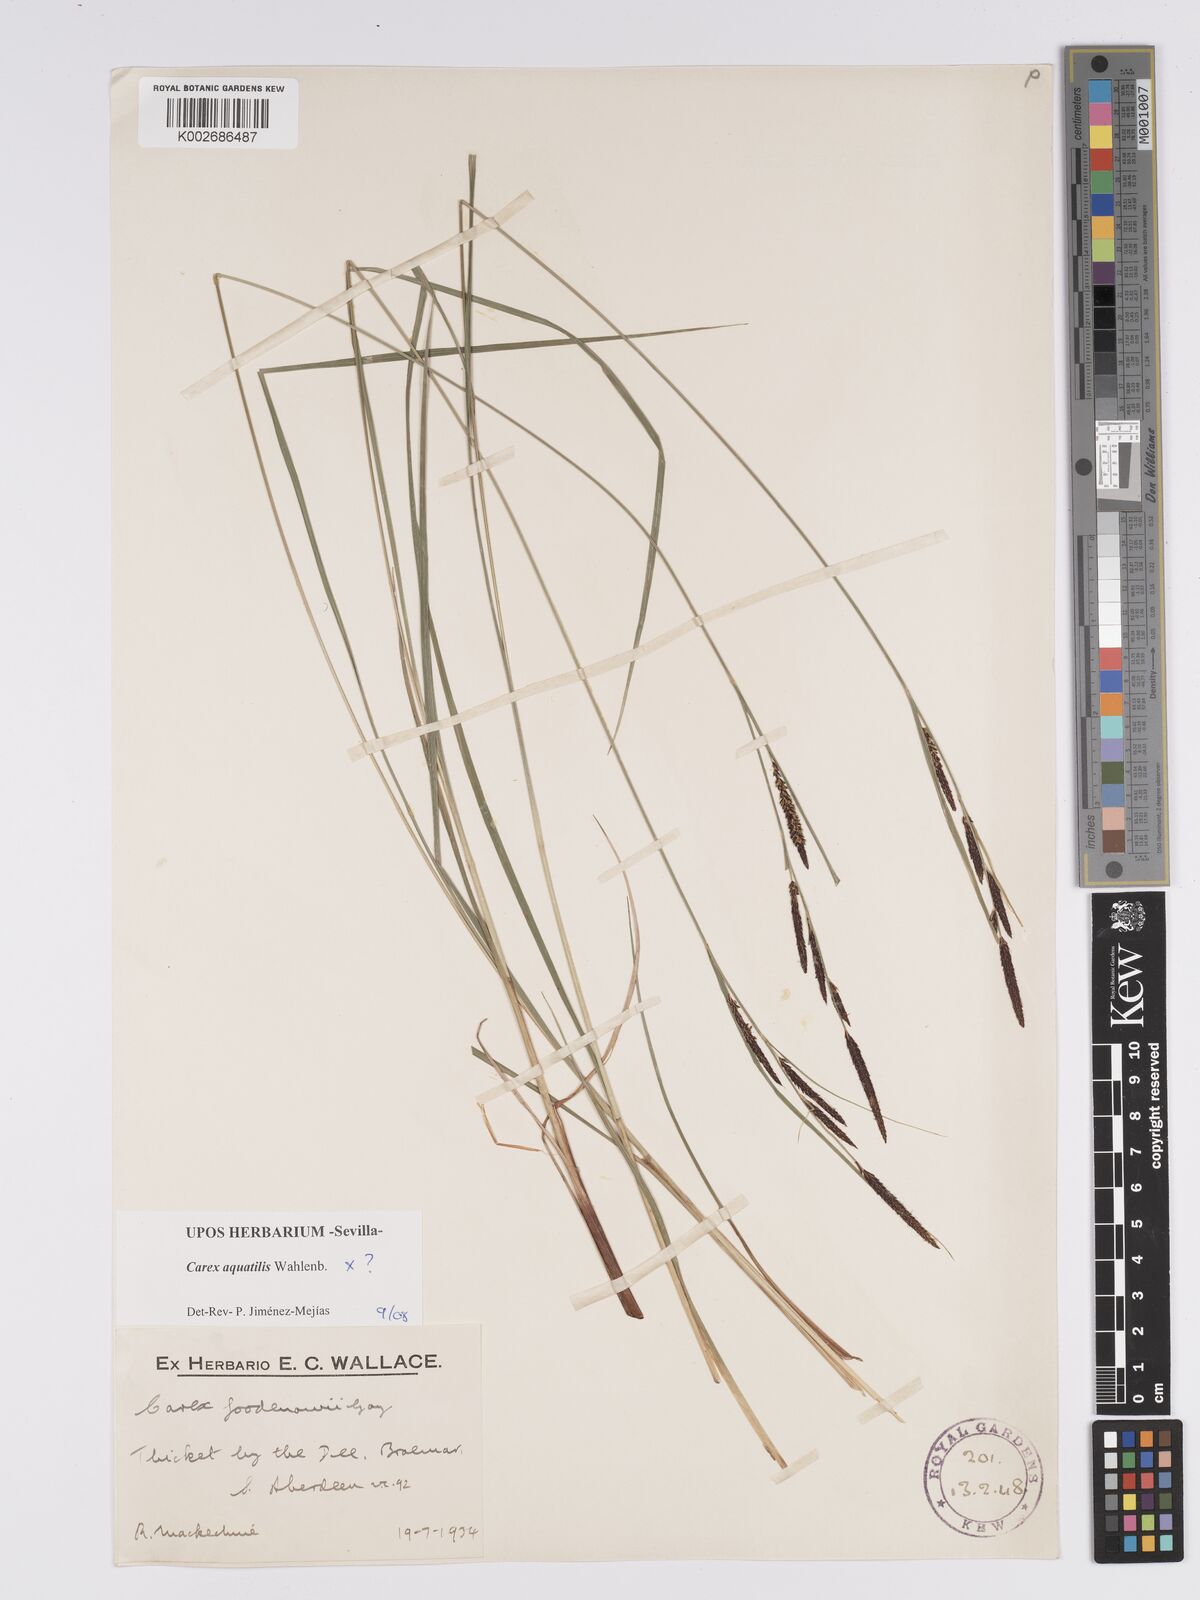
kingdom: Plantae
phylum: Tracheophyta
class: Liliopsida
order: Poales
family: Cyperaceae
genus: Carex
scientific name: Carex aquatilis
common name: Water sedge
